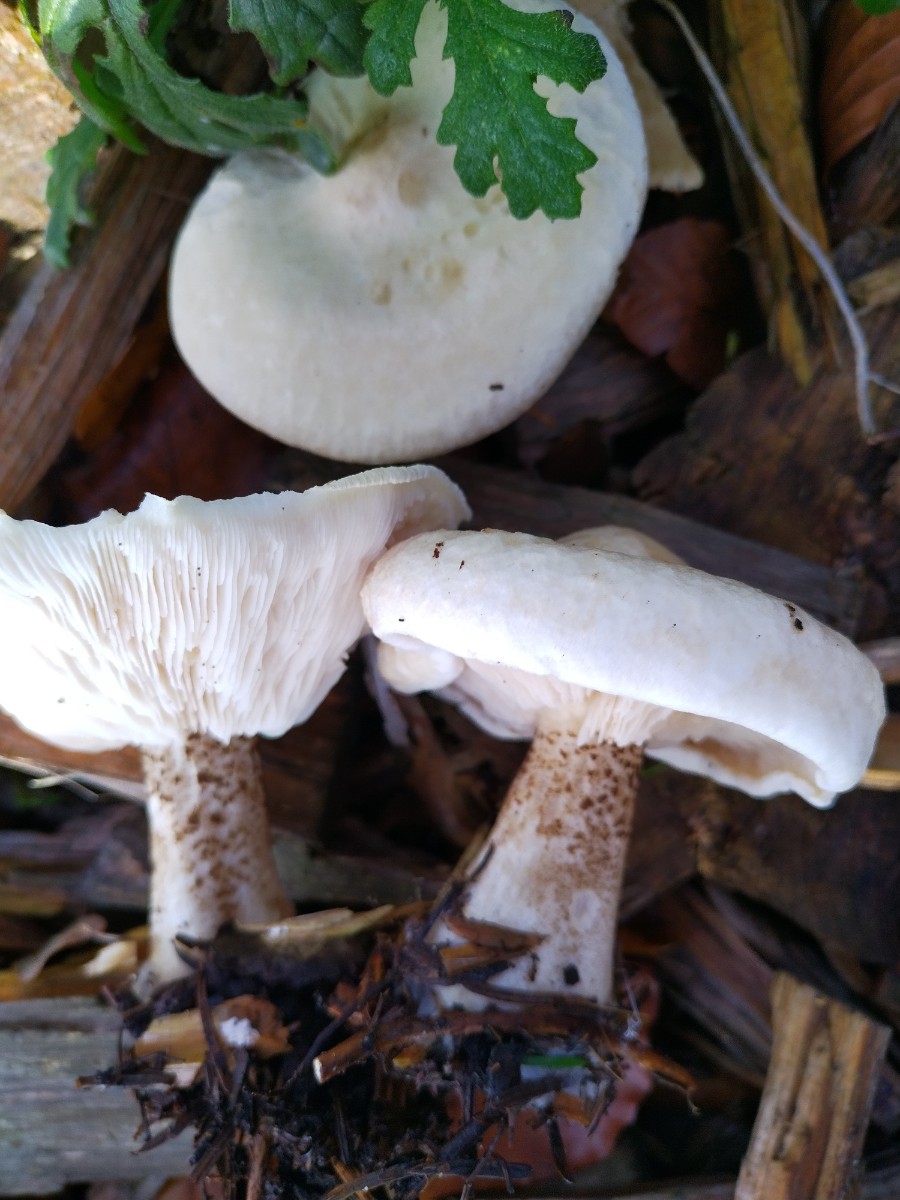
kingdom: Fungi
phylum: Basidiomycota
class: Agaricomycetes
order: Agaricales
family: Tricholomataceae
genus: Melanoleuca
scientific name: Melanoleuca verrucipes
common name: rufodet munkehat
